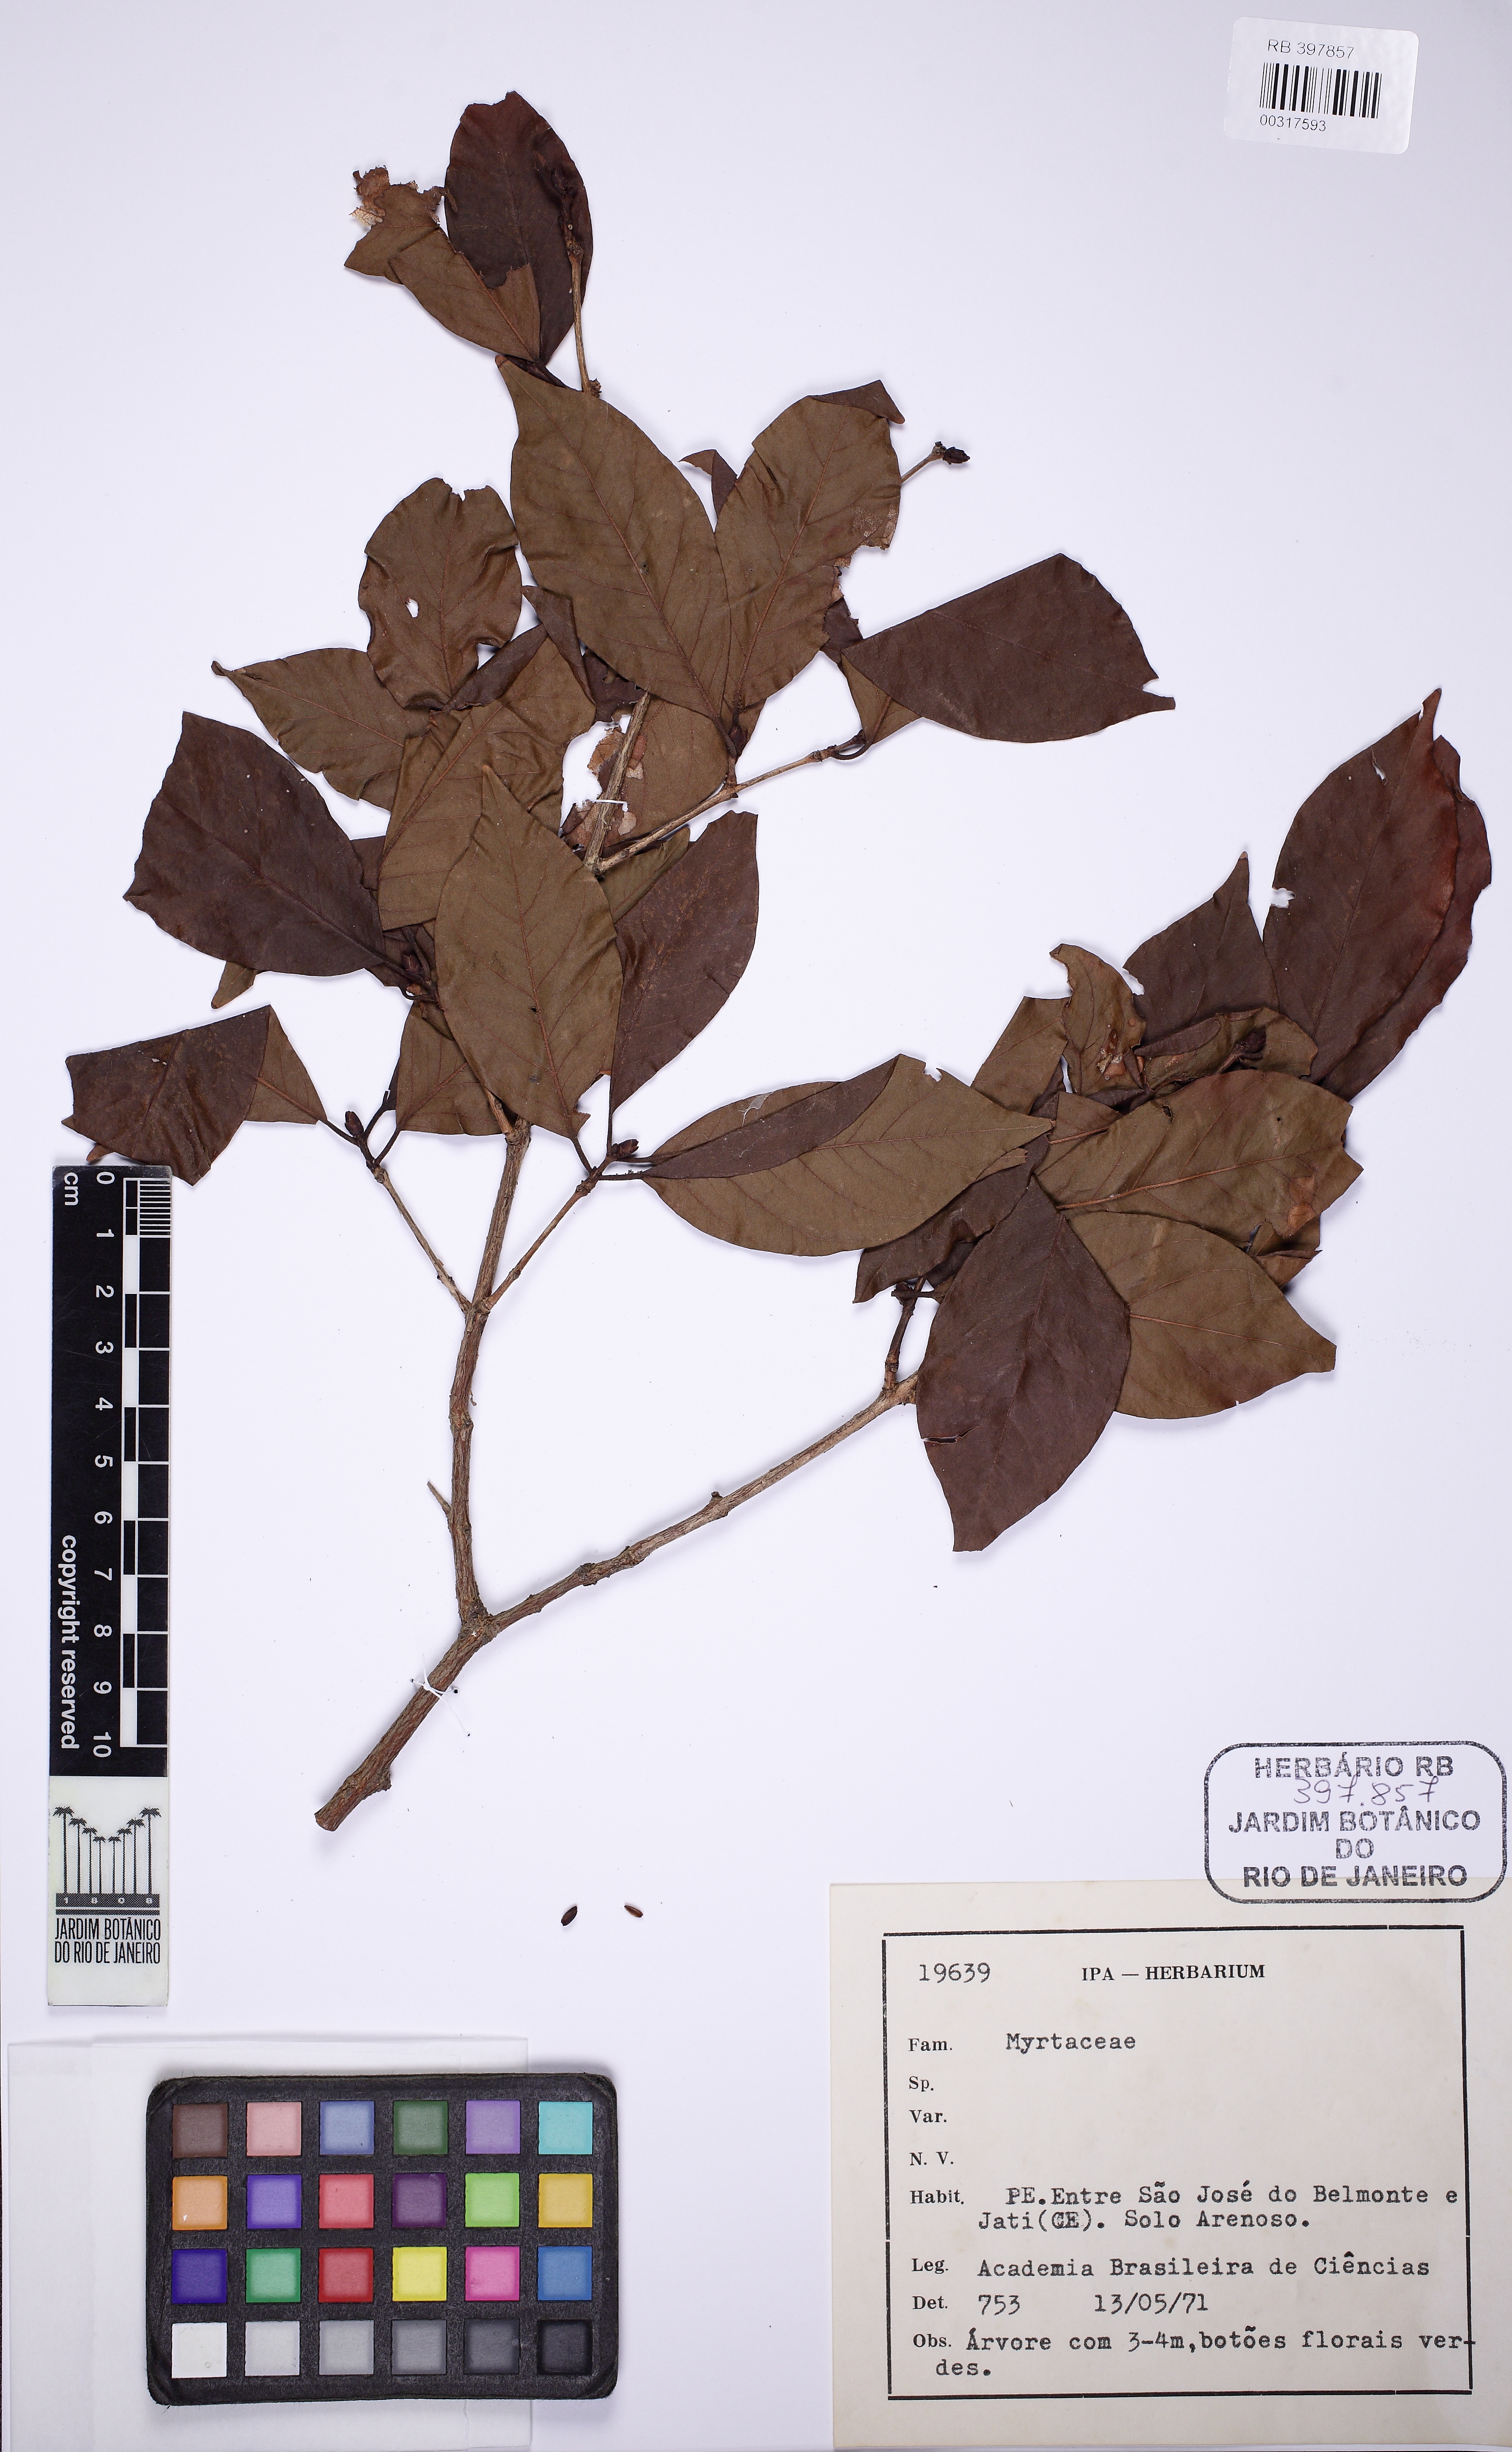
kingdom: Plantae
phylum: Tracheophyta
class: Magnoliopsida
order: Myrtales
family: Myrtaceae
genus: Eugenia
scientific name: Eugenia
